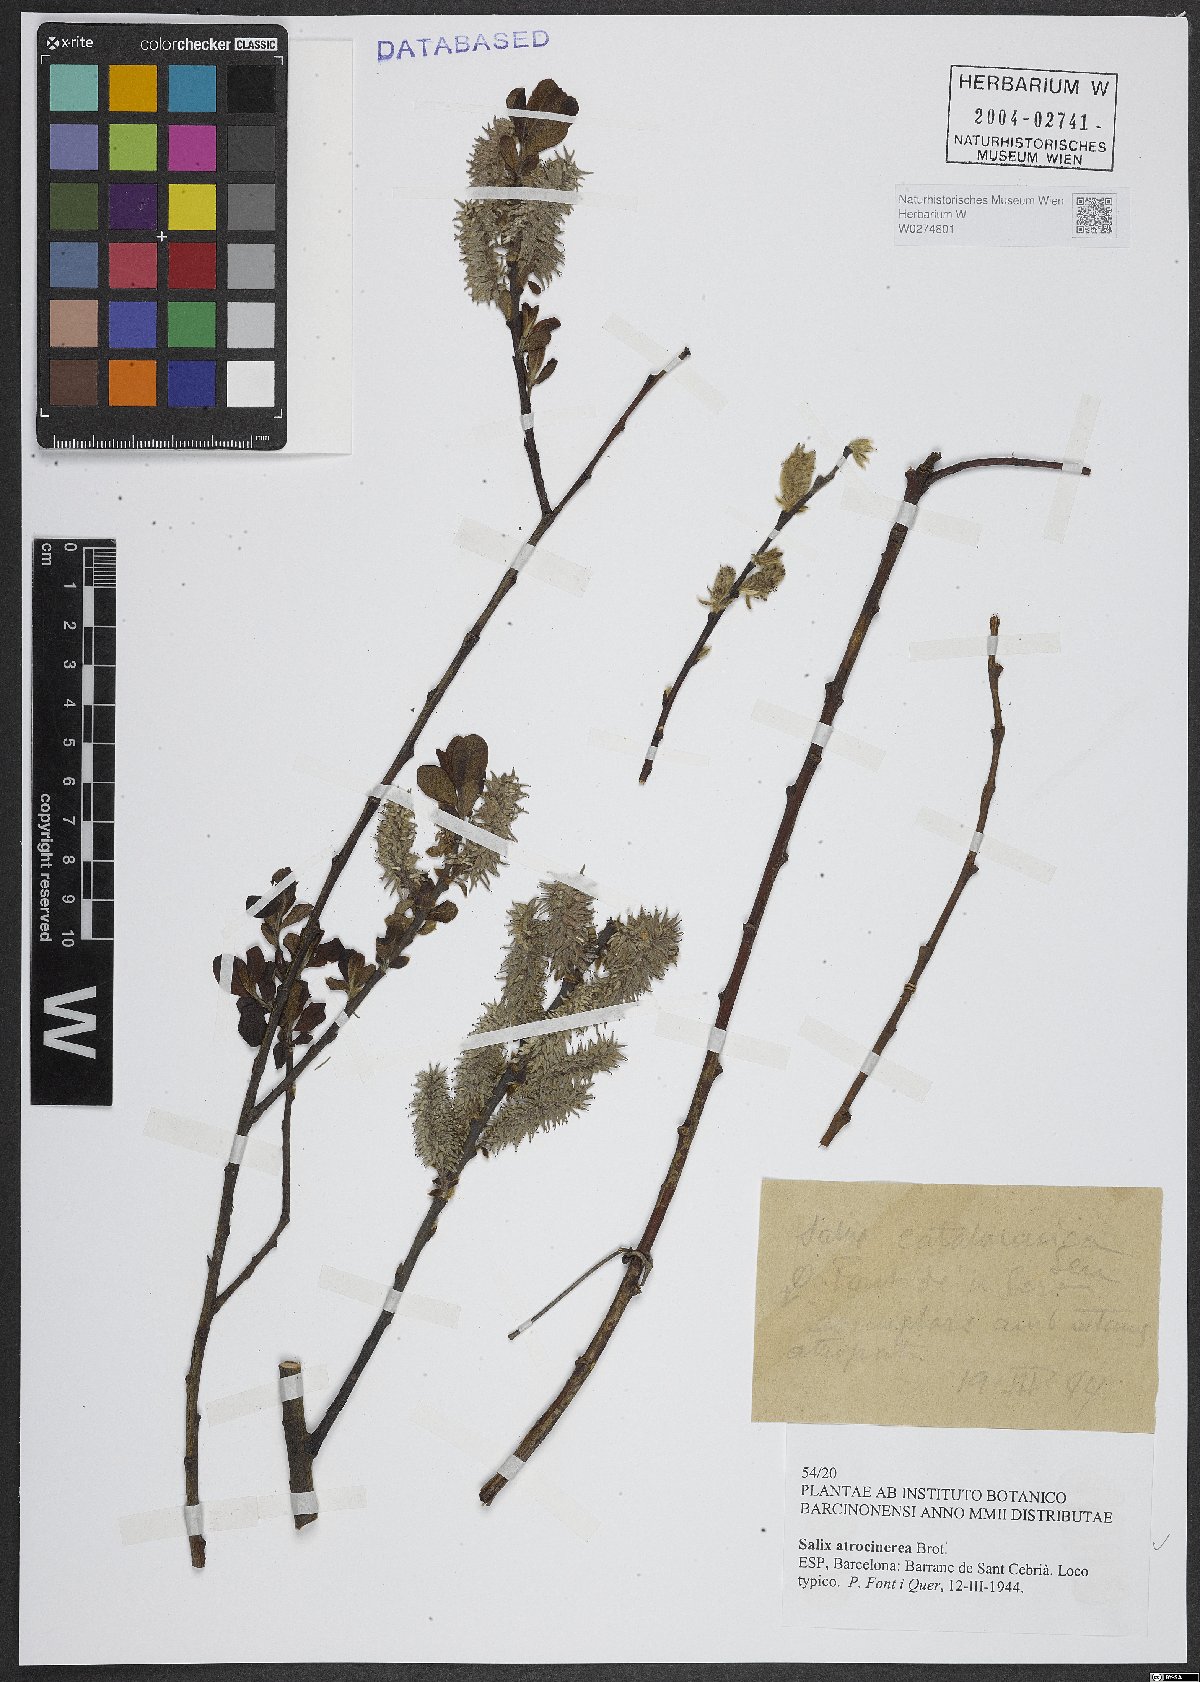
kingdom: Plantae
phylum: Tracheophyta
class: Magnoliopsida
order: Malpighiales
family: Salicaceae
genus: Salix
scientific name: Salix atrocinerea
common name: Rusty willow
